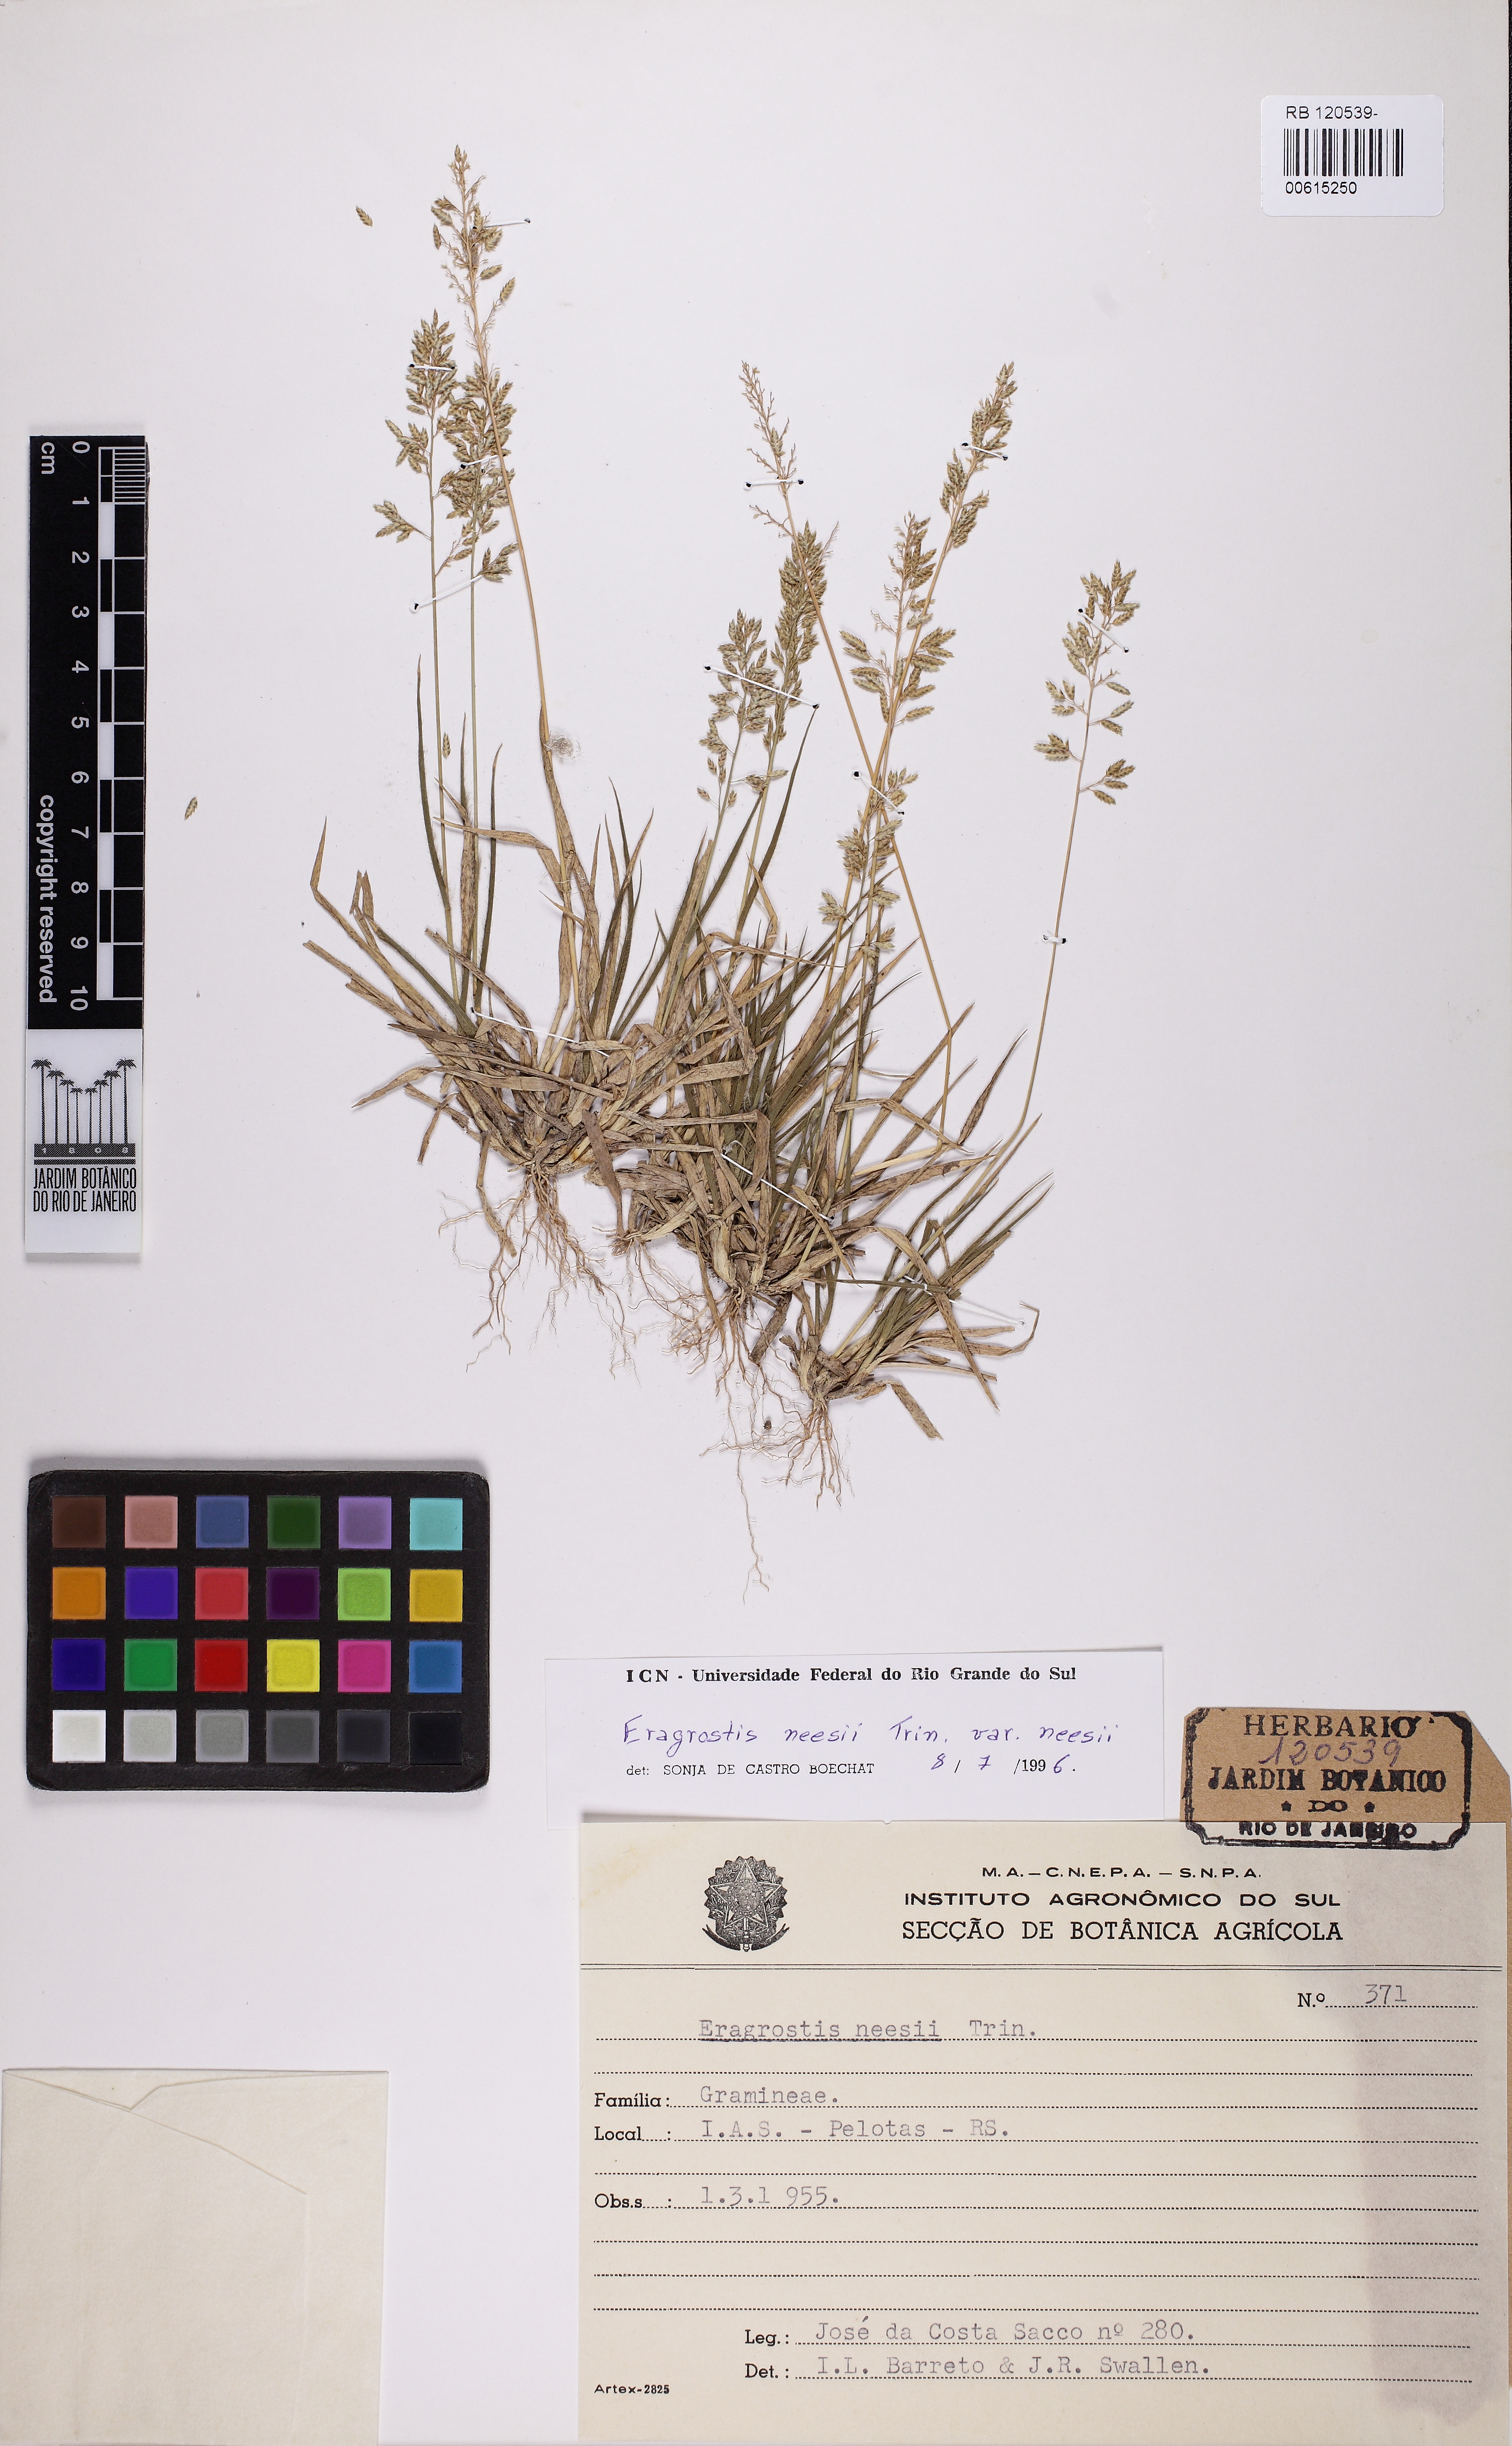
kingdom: Plantae
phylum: Tracheophyta
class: Liliopsida
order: Poales
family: Poaceae
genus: Eragrostis
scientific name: Eragrostis neesii
